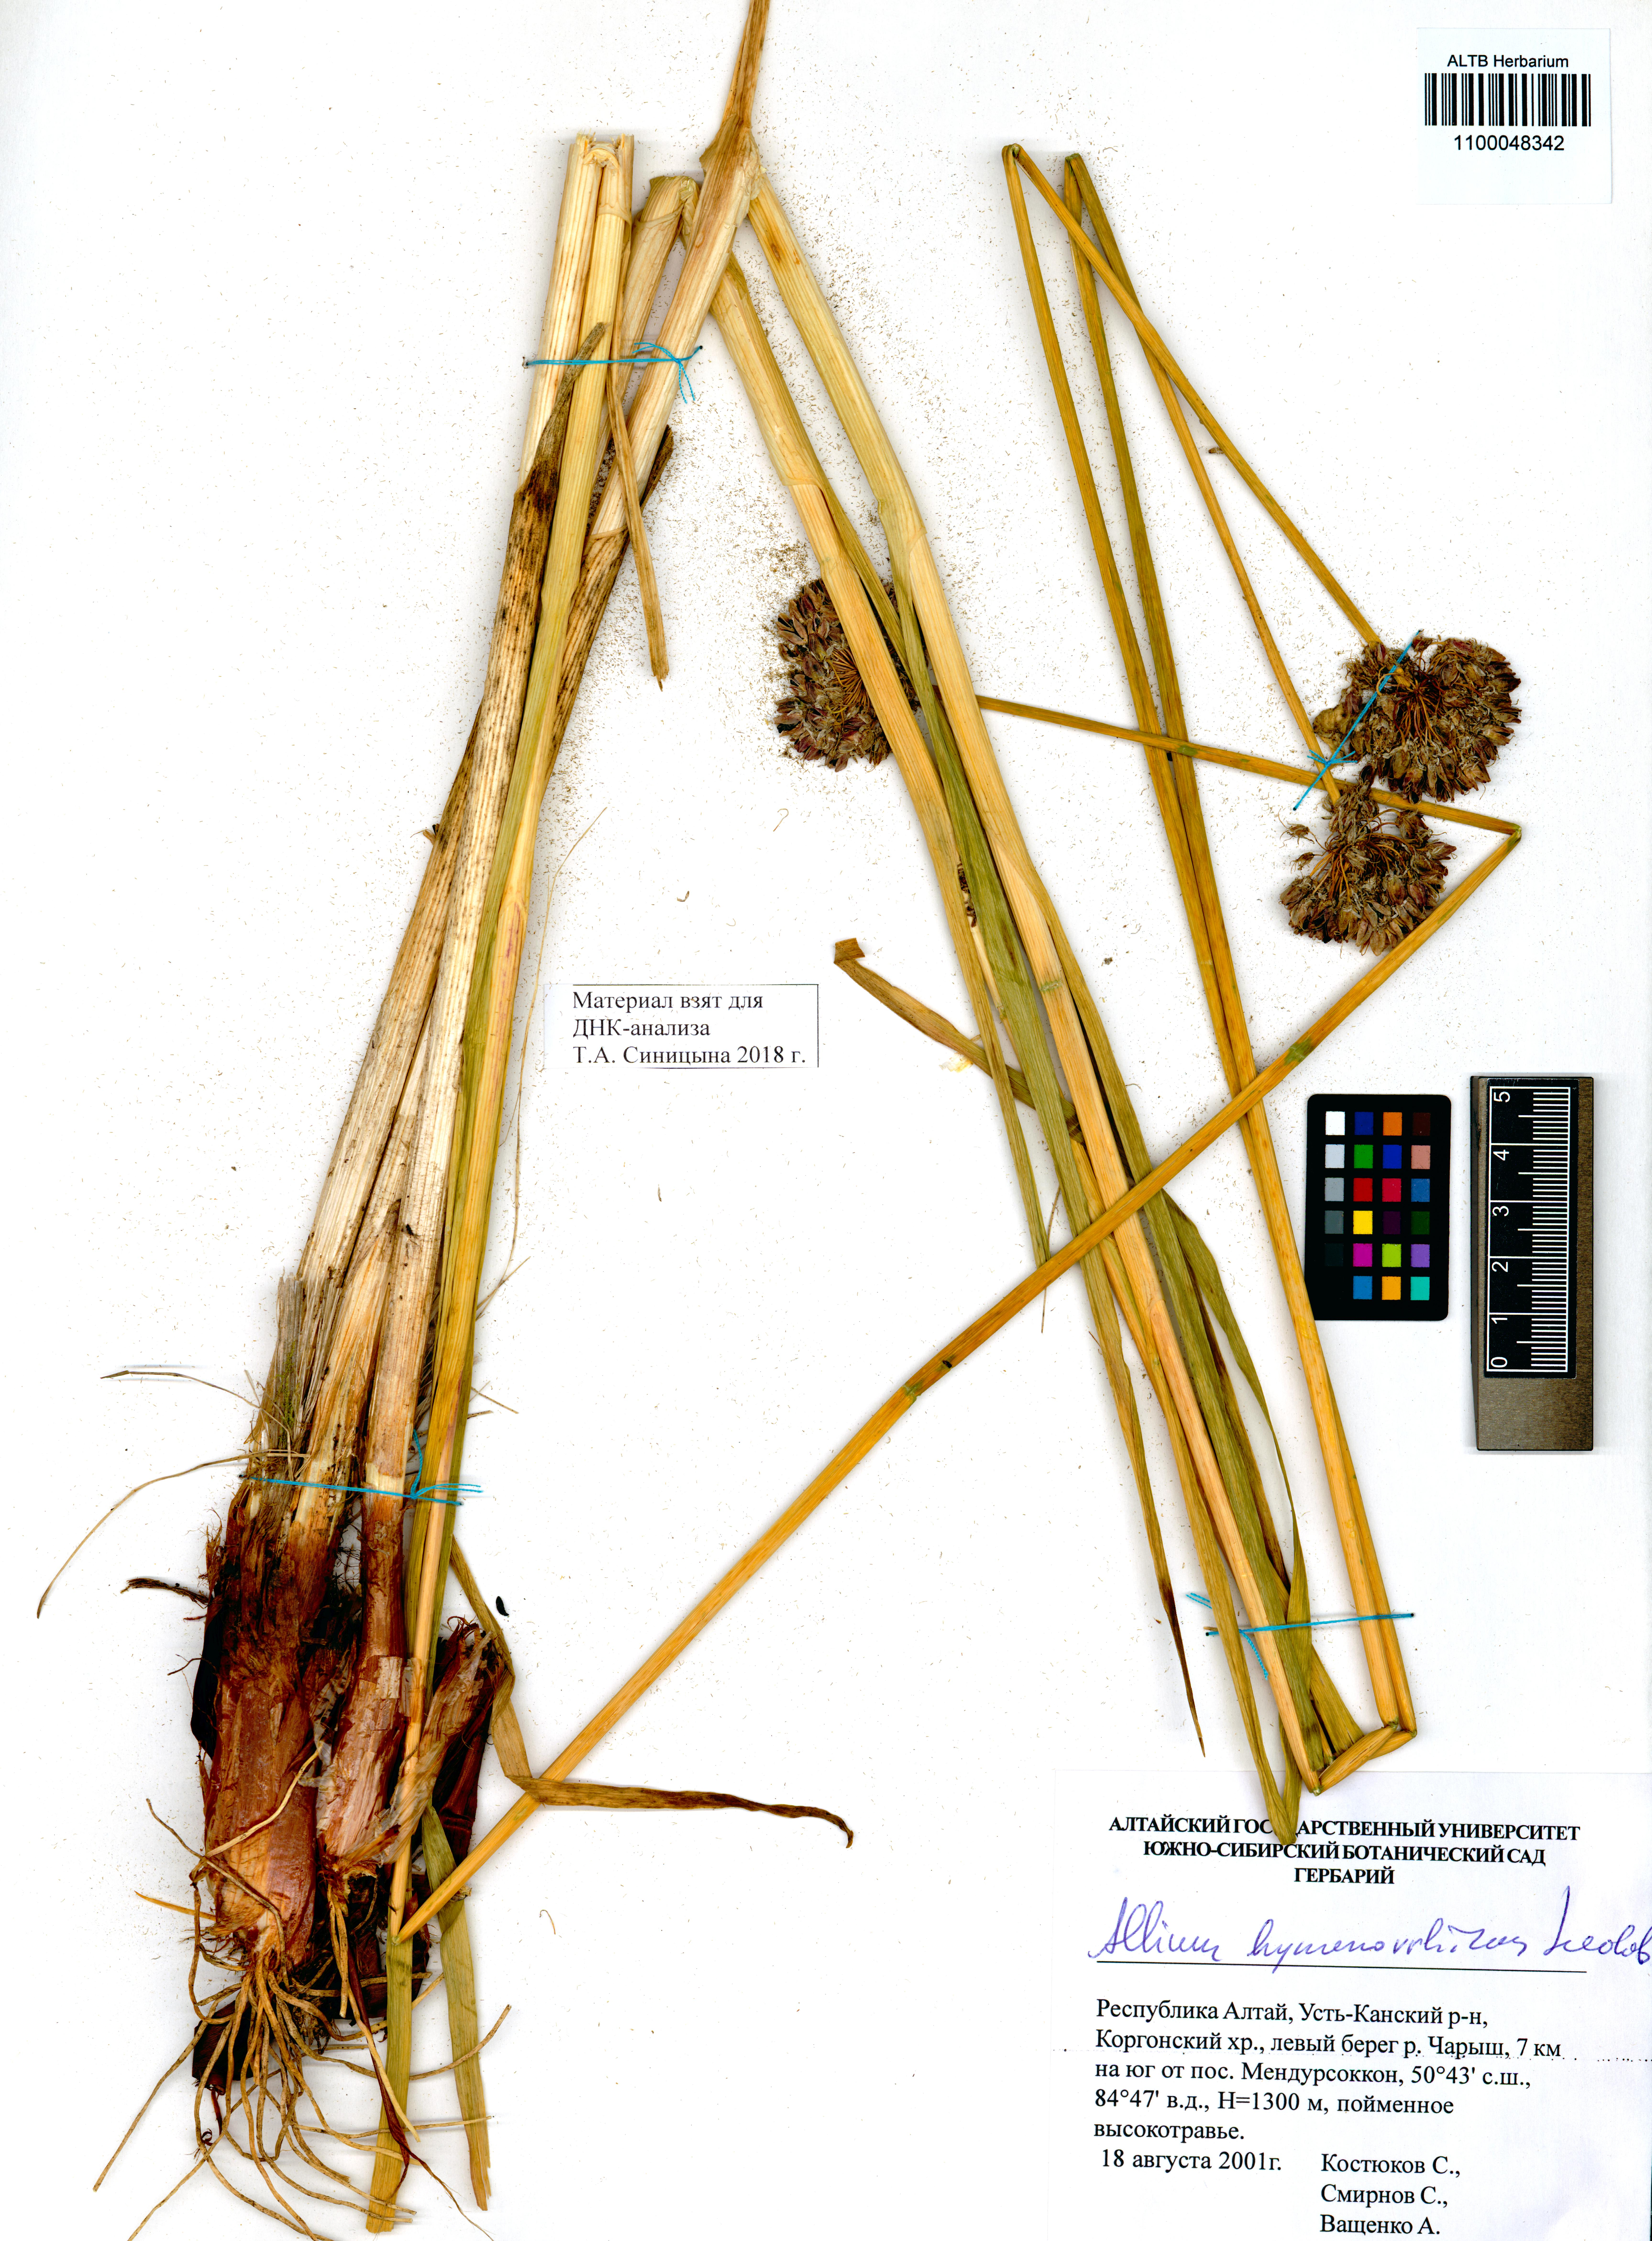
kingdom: Plantae
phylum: Tracheophyta
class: Liliopsida
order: Asparagales
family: Amaryllidaceae
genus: Allium
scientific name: Allium hymenorhizum
